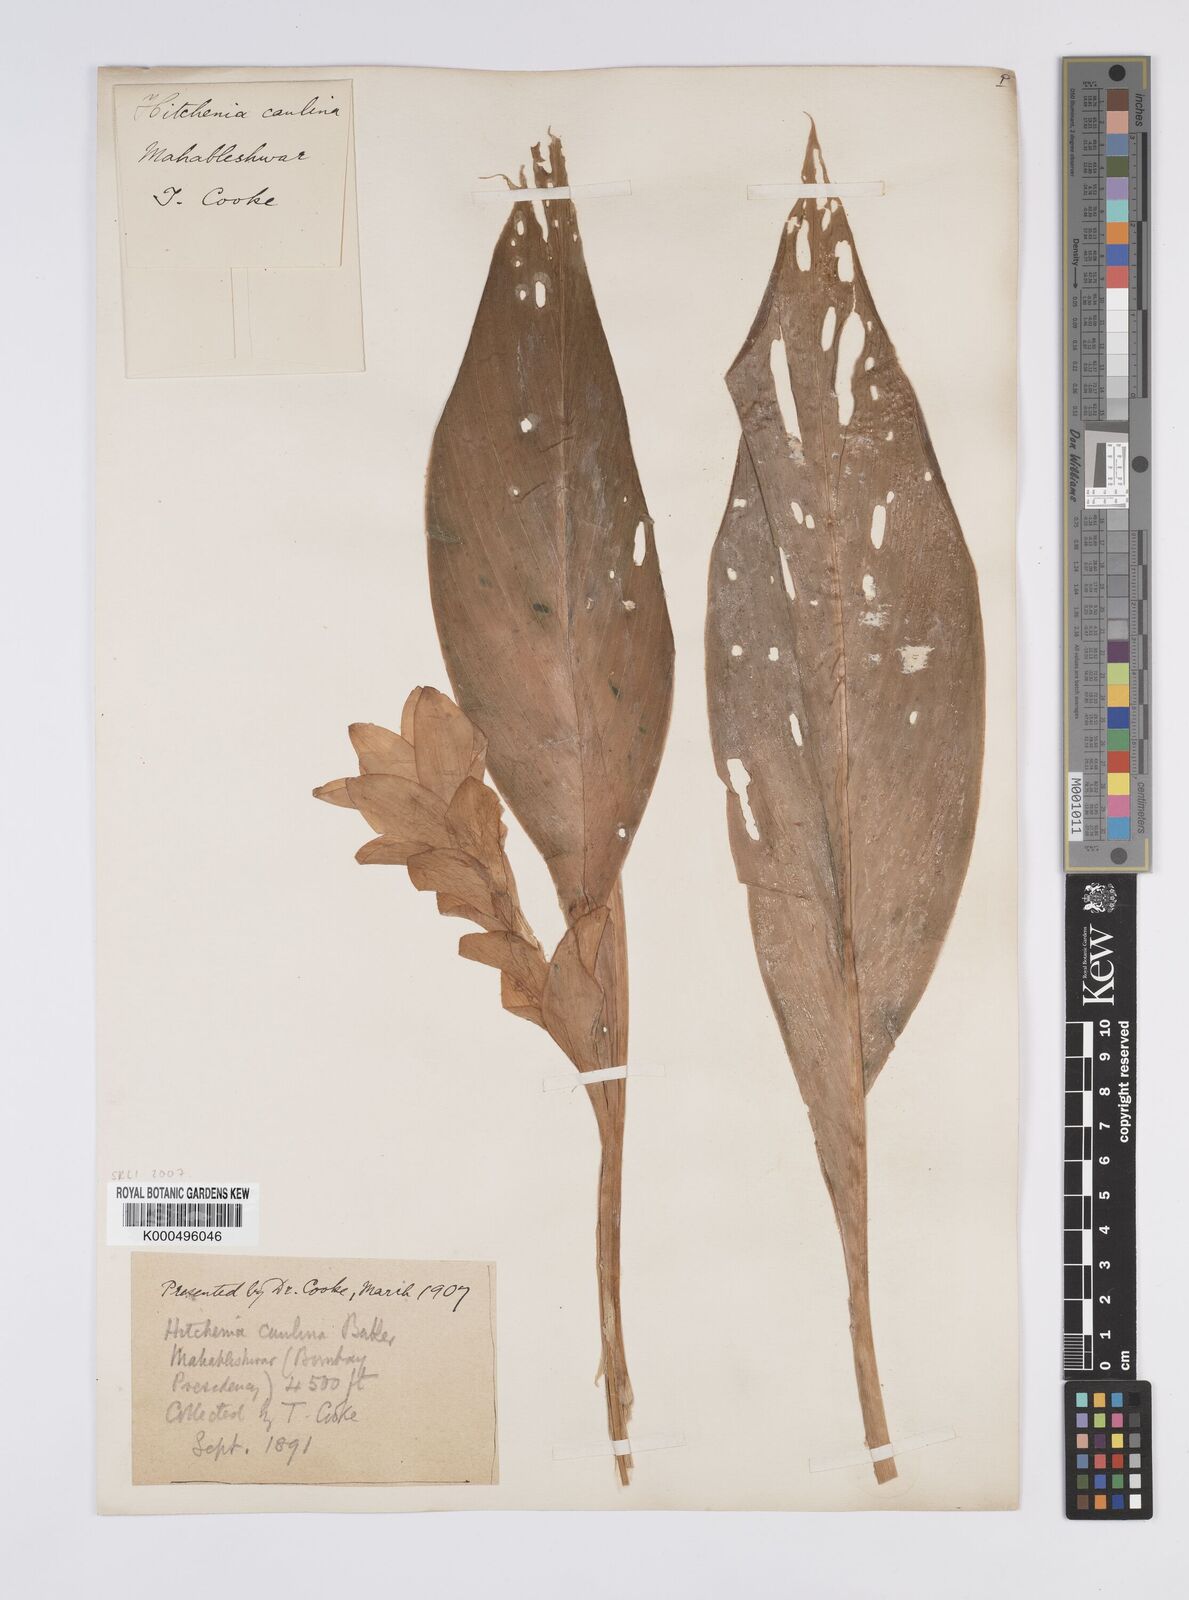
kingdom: Plantae
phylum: Tracheophyta
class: Liliopsida
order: Zingiberales
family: Zingiberaceae
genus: Curcuma
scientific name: Curcuma caulina
